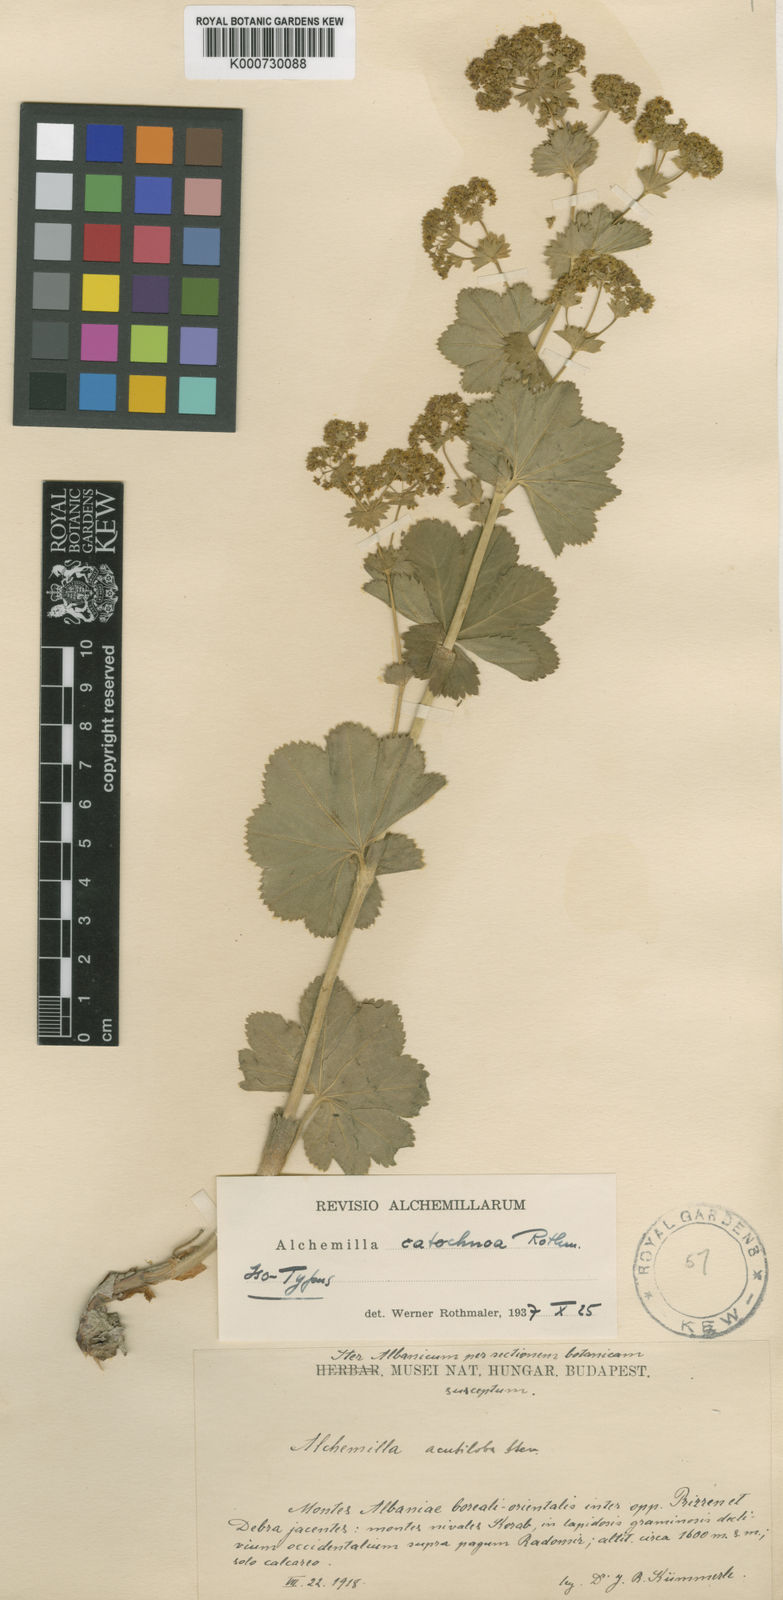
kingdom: Plantae
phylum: Tracheophyta
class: Magnoliopsida
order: Rosales
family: Rosaceae
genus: Alchemilla
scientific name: Alchemilla
